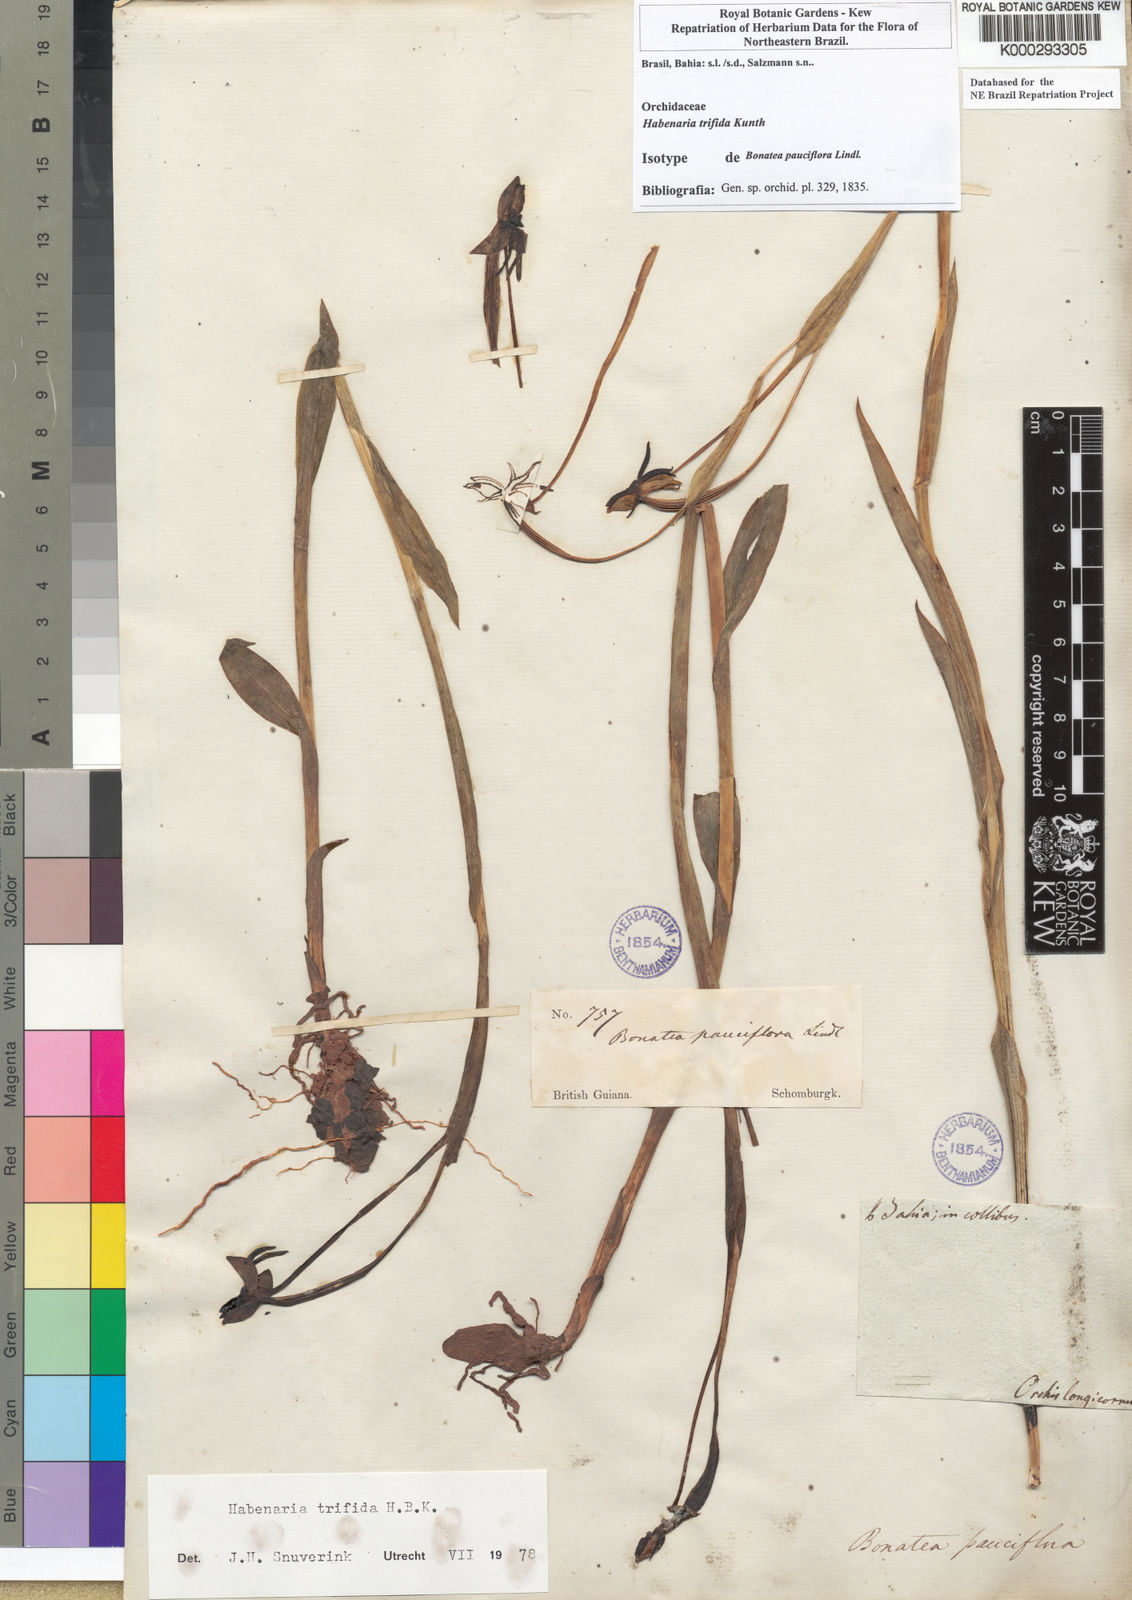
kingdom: Plantae
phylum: Tracheophyta
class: Liliopsida
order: Asparagales
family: Orchidaceae
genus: Habenaria
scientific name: Habenaria trifida
